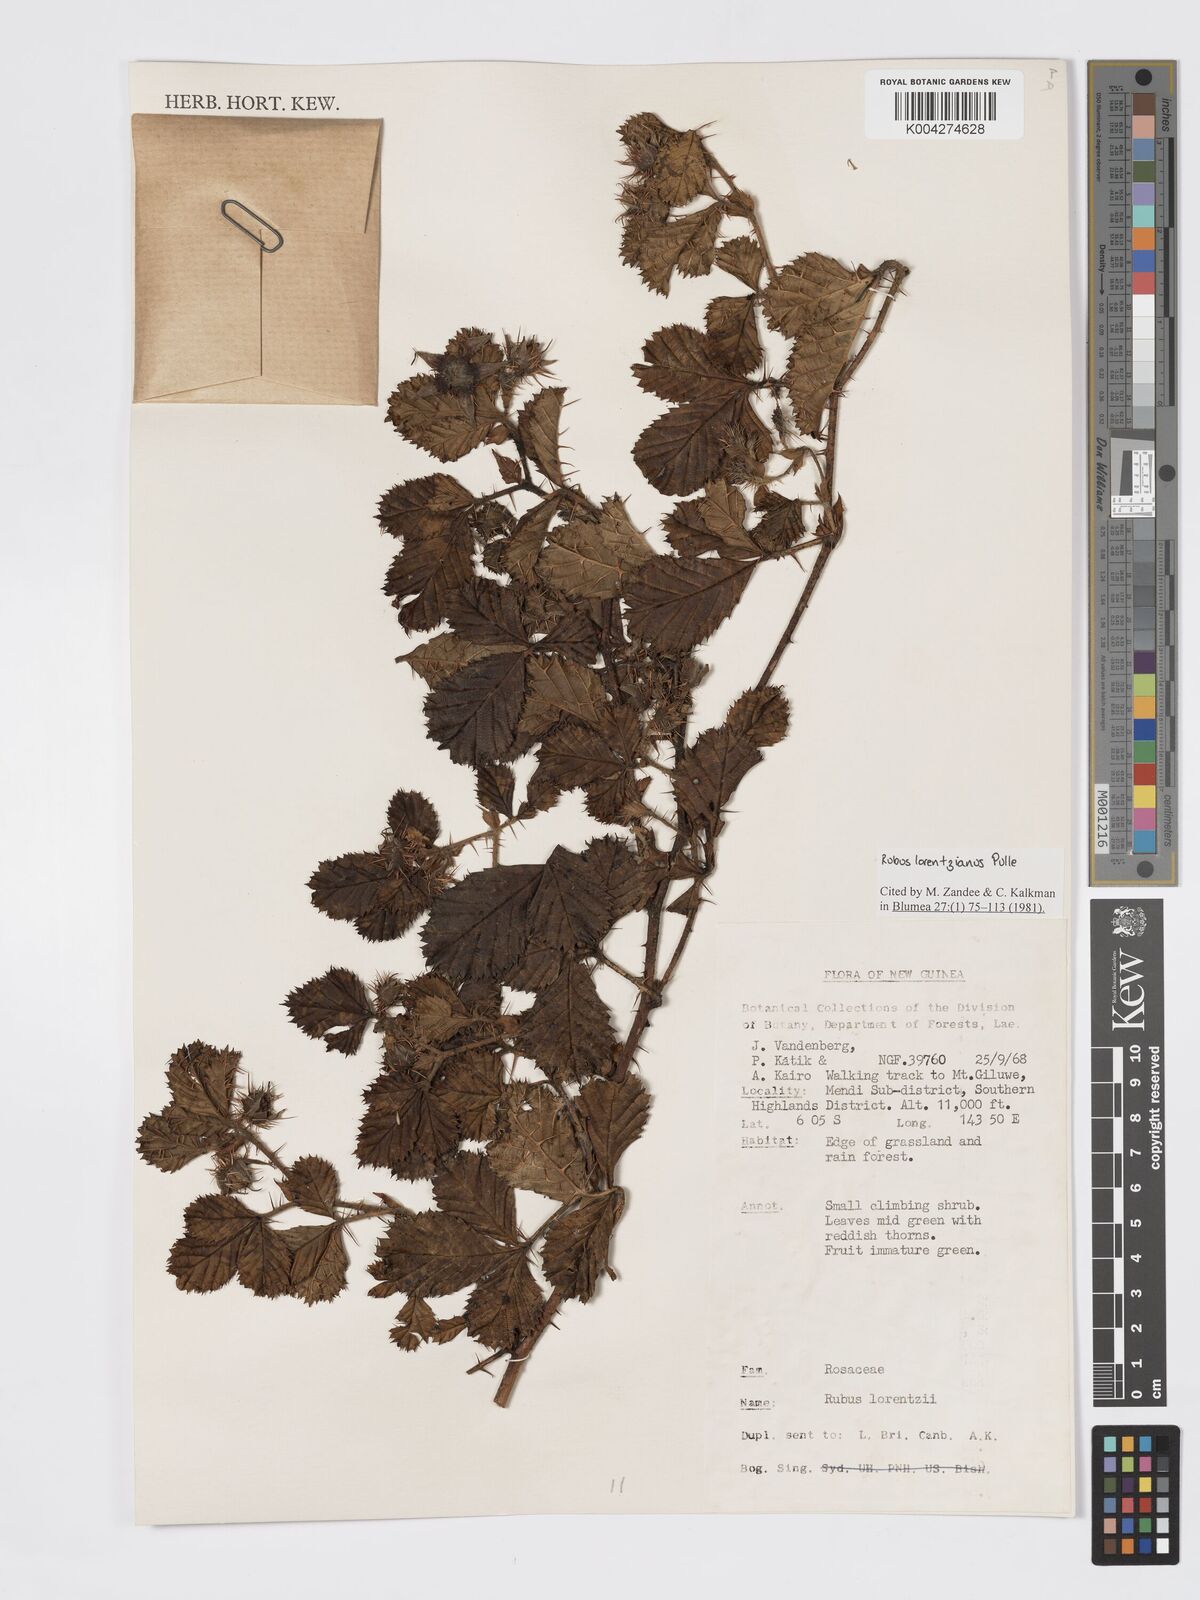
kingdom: Plantae
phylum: Tracheophyta
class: Magnoliopsida
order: Rosales
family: Rosaceae
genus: Rubus
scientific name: Rubus lorentzianus
